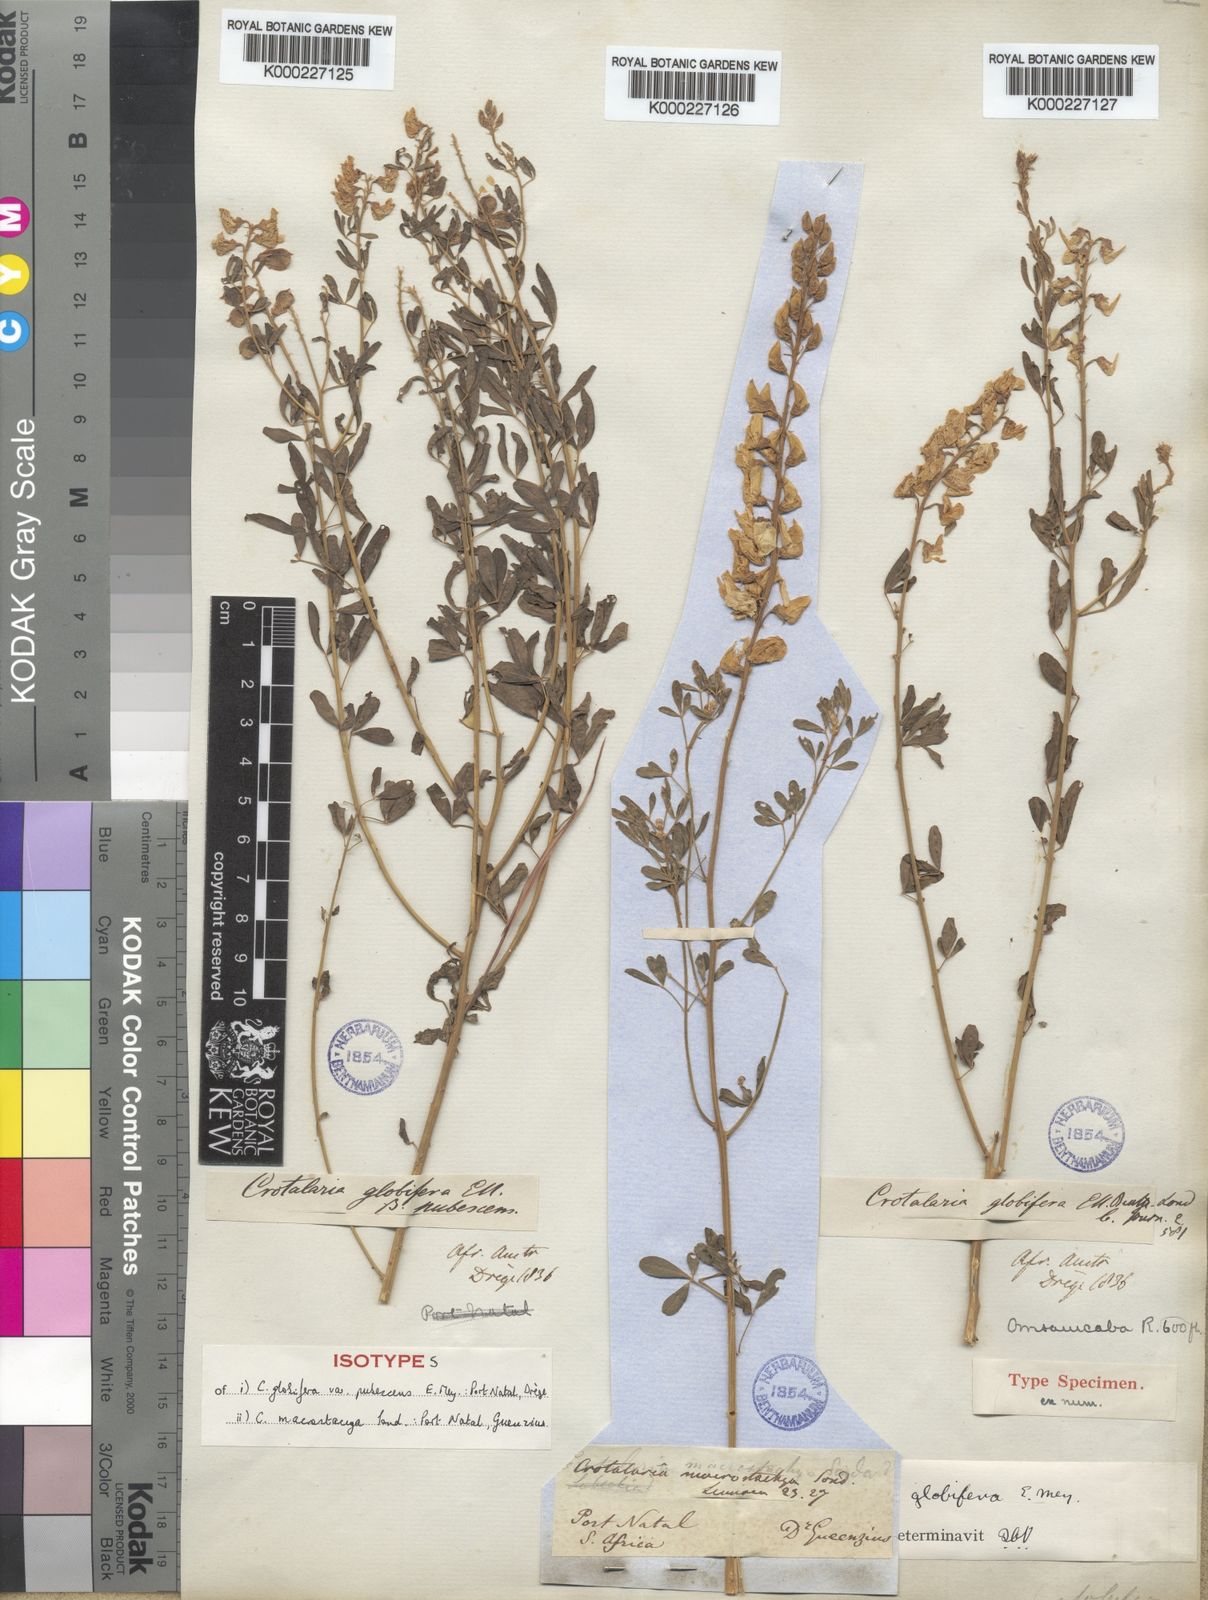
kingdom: Plantae
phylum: Tracheophyta
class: Magnoliopsida
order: Fabales
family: Fabaceae
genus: Crotalaria
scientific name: Crotalaria globifera
